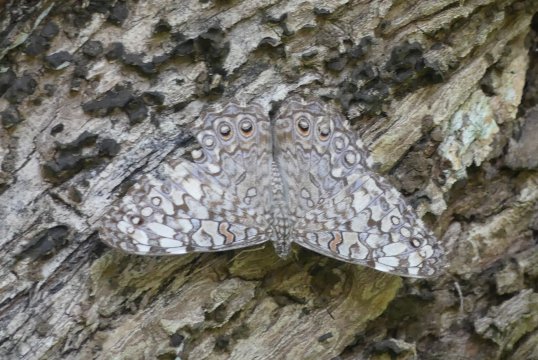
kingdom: Animalia
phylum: Arthropoda
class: Insecta
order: Lepidoptera
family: Nymphalidae
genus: Hamadryas
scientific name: Hamadryas feronia
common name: Variable Cracker
